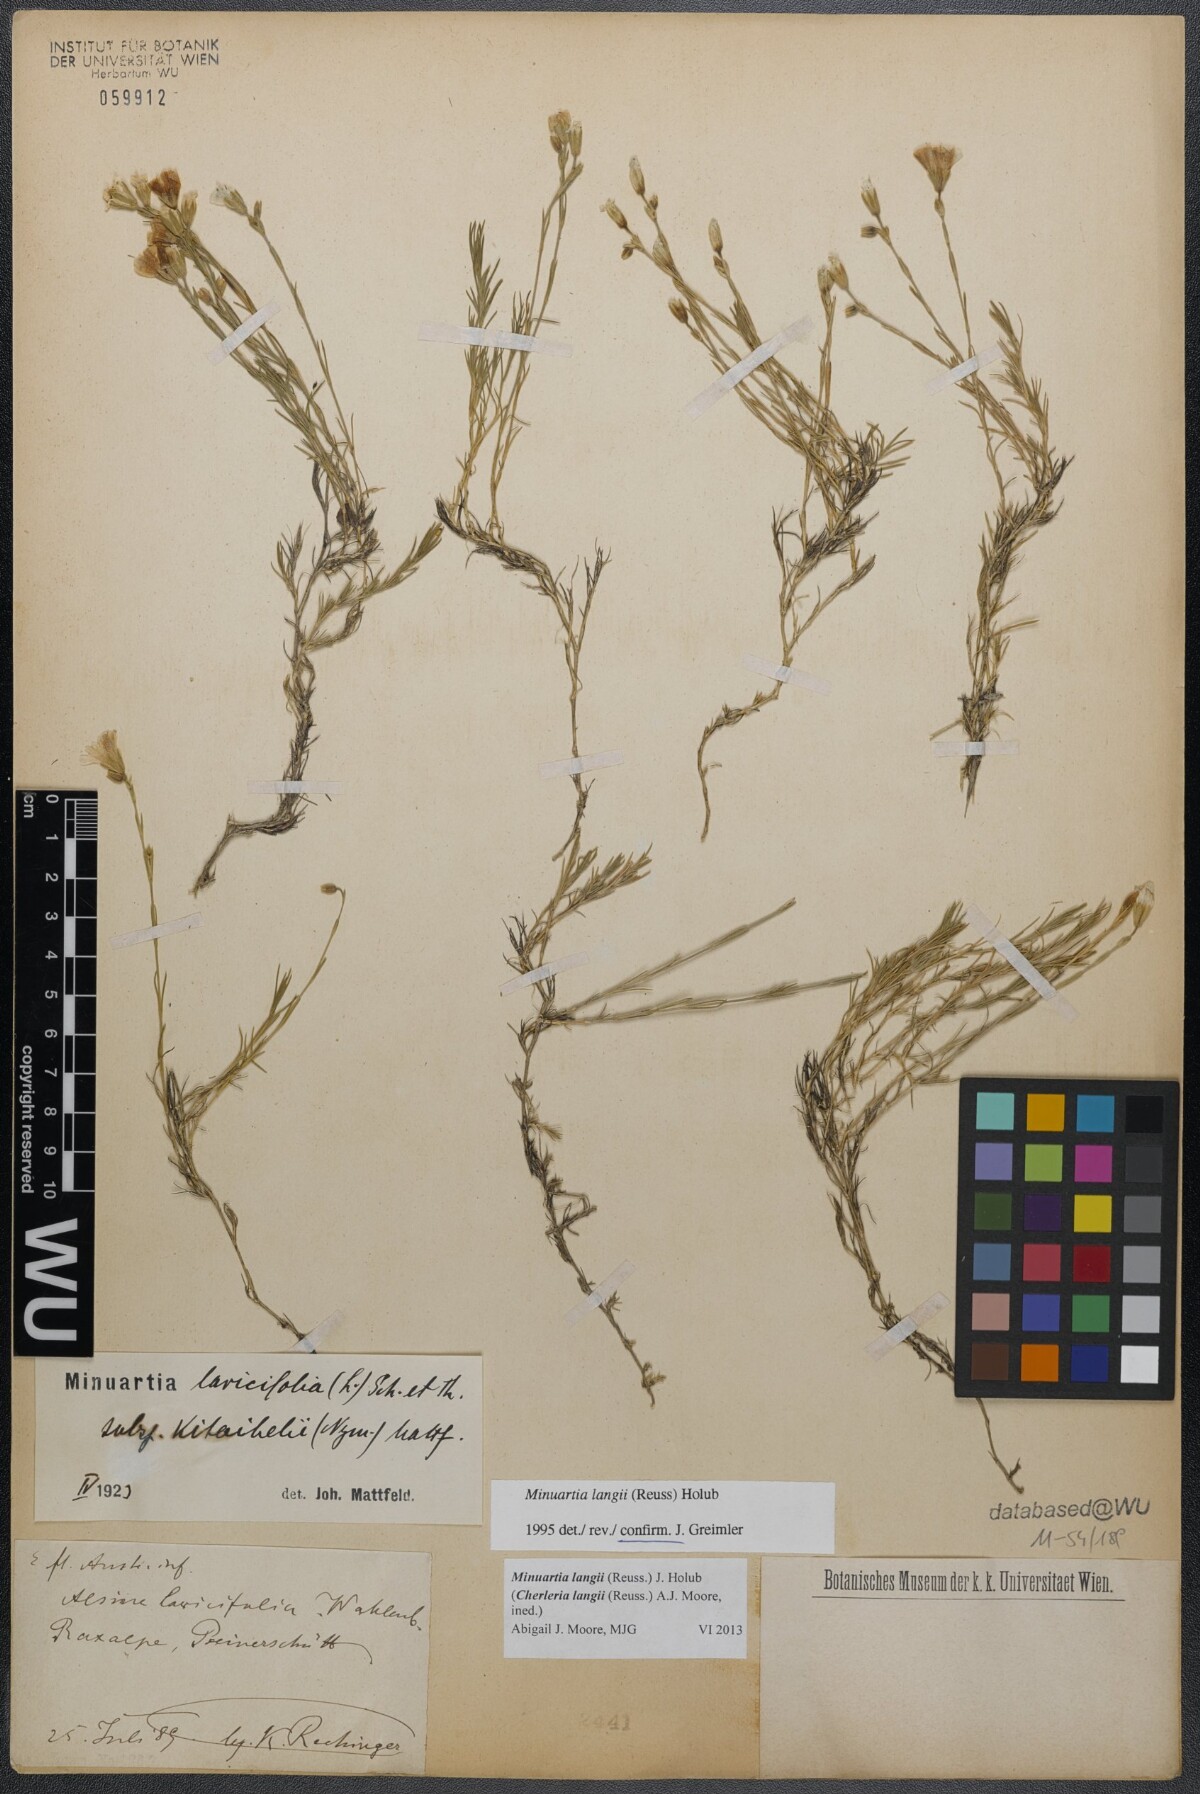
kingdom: Plantae
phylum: Tracheophyta
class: Magnoliopsida
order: Caryophyllales
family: Caryophyllaceae
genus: Cherleria
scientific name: Cherleria langii
